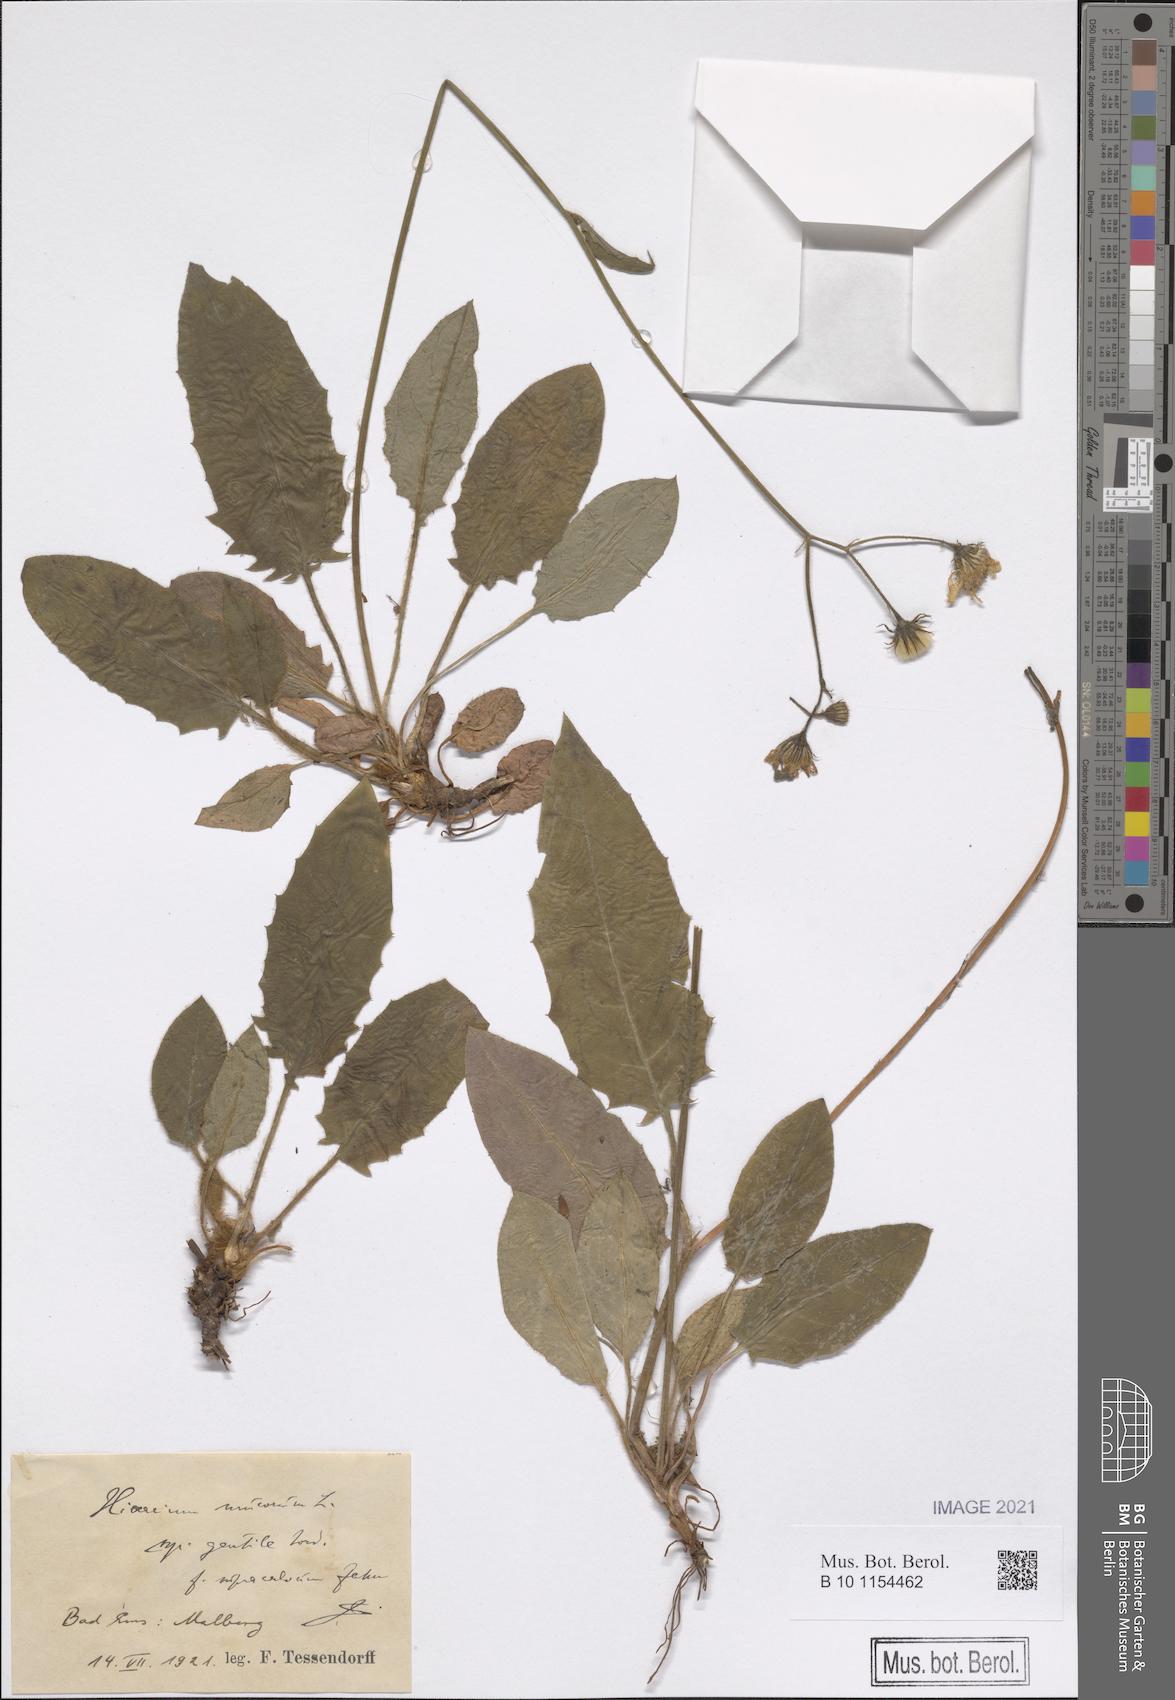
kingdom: Plantae
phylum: Tracheophyta
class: Magnoliopsida
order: Asterales
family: Asteraceae
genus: Hieracium
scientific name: Hieracium murorum
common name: Wall hawkweed
